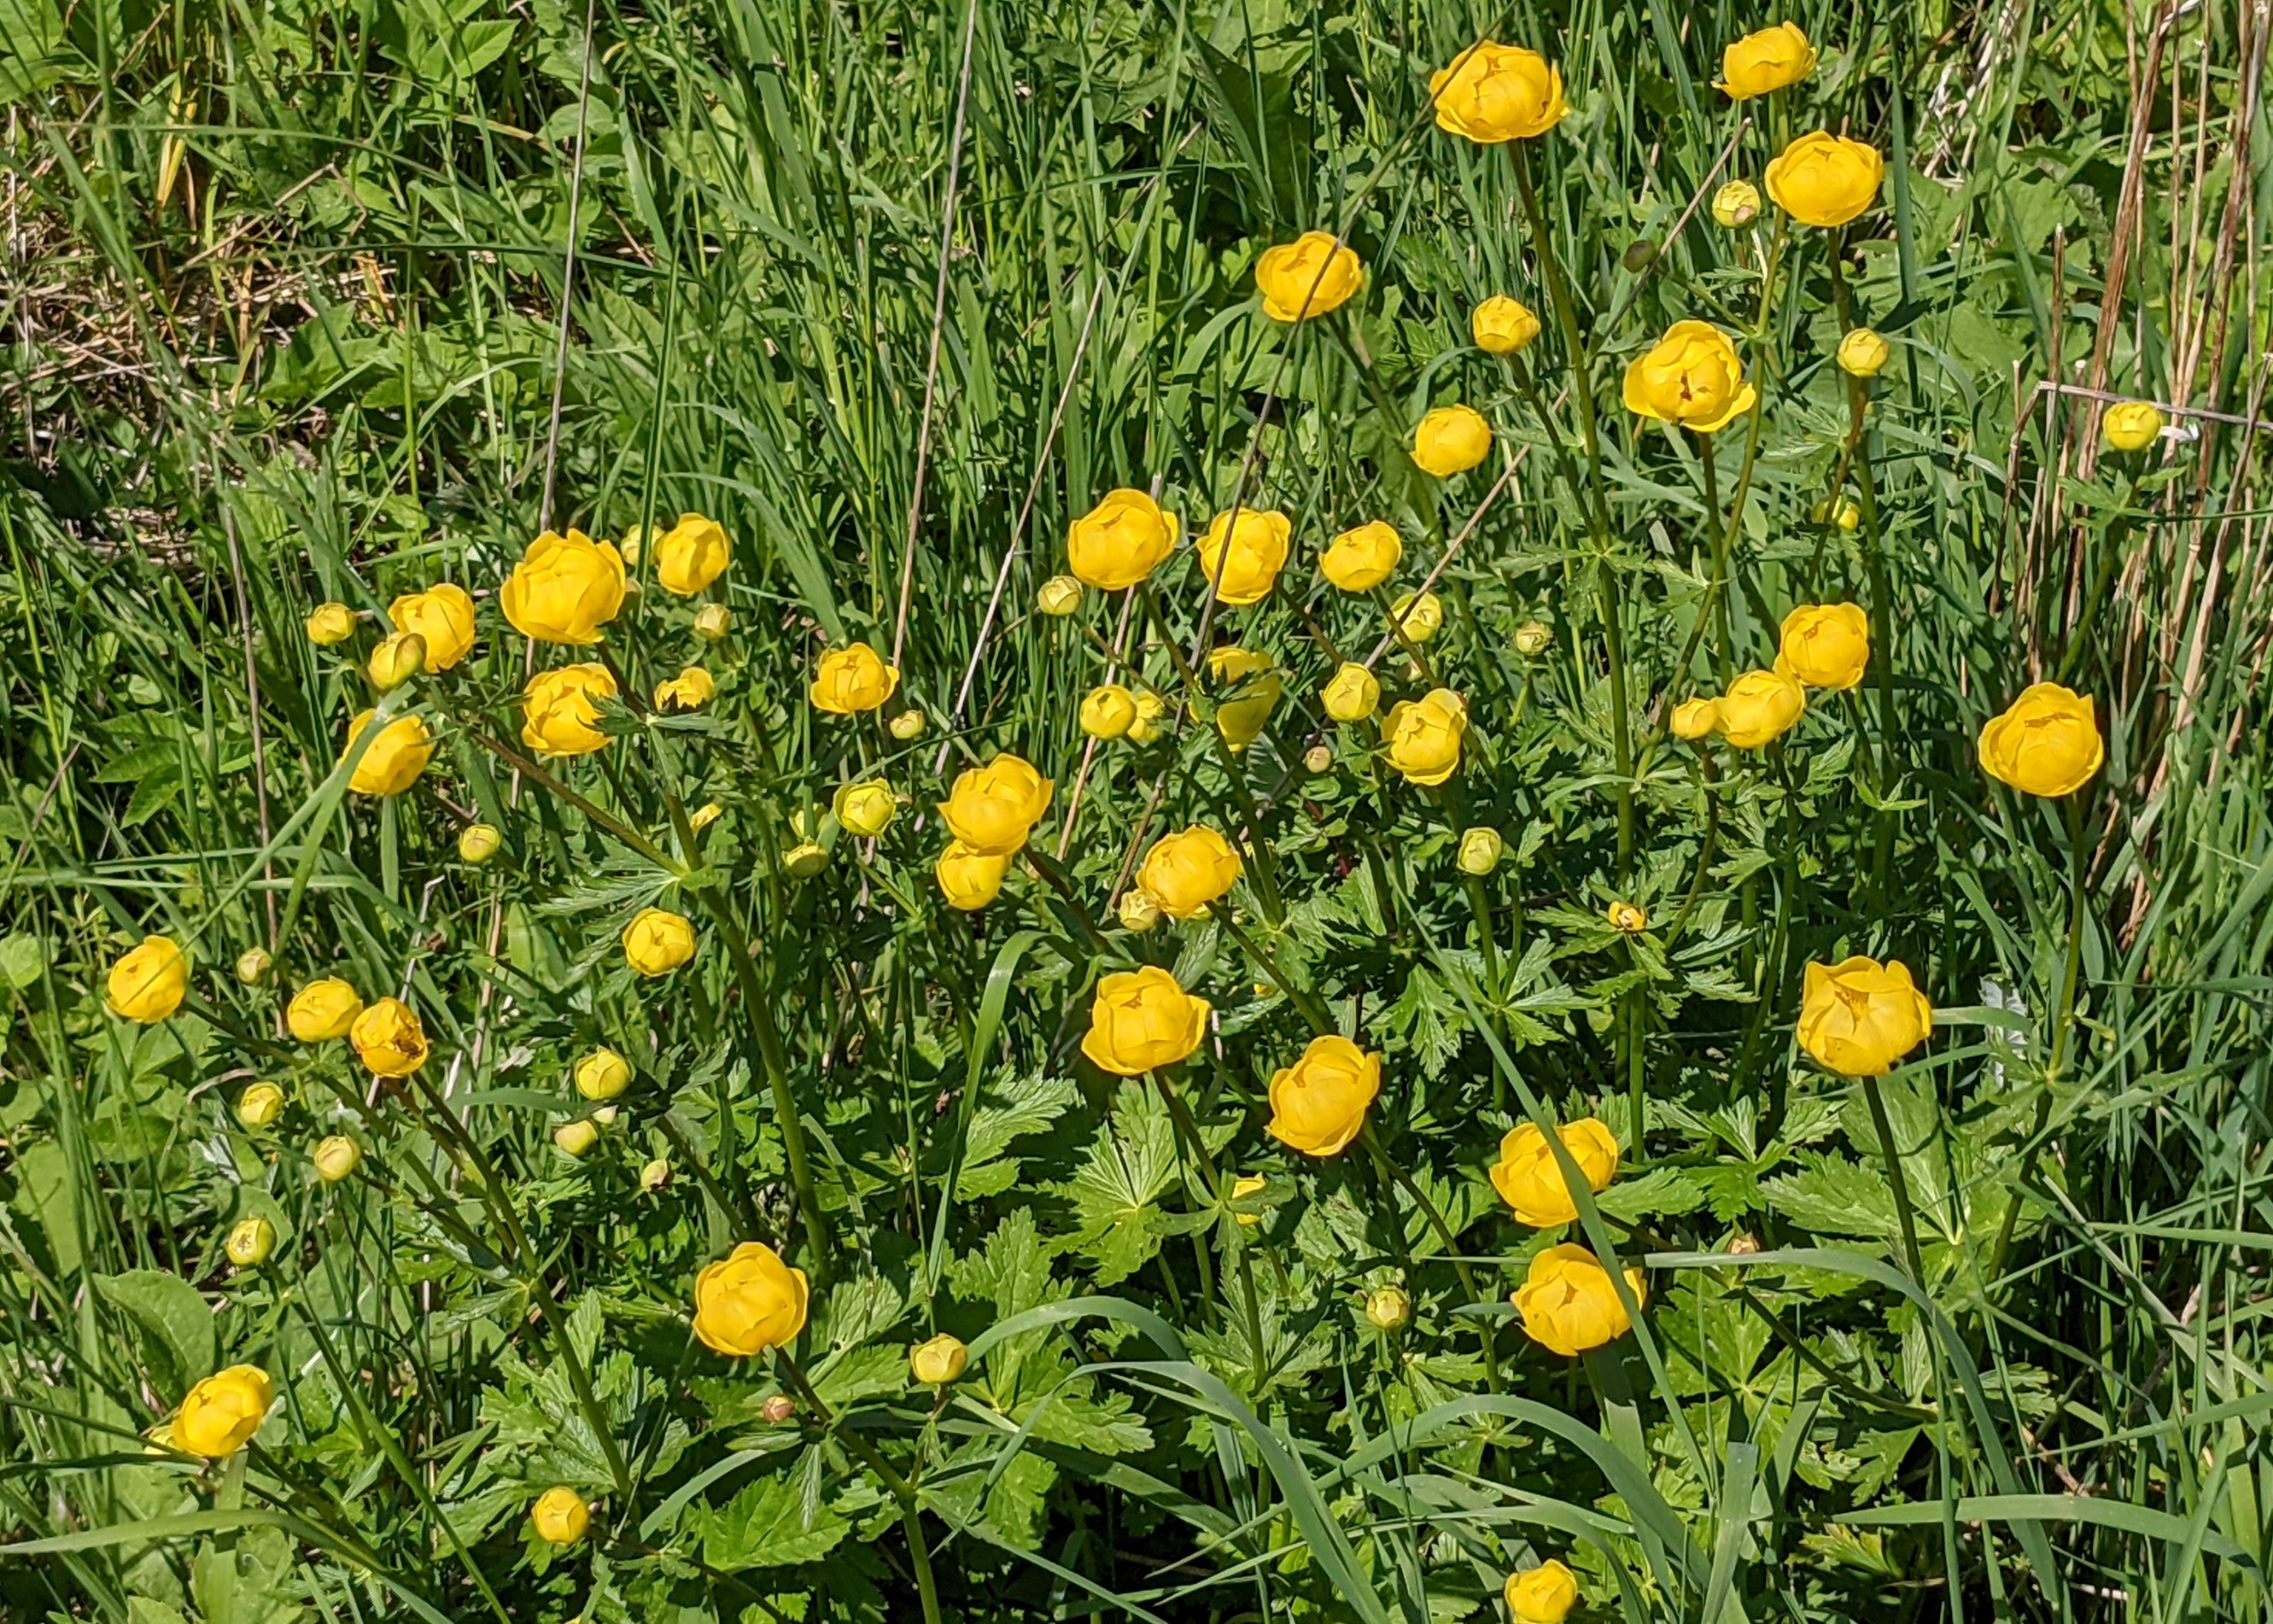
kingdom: Plantae
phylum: Tracheophyta
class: Magnoliopsida
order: Ranunculales
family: Ranunculaceae
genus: Trollius
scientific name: Trollius europaeus
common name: Engblomme
